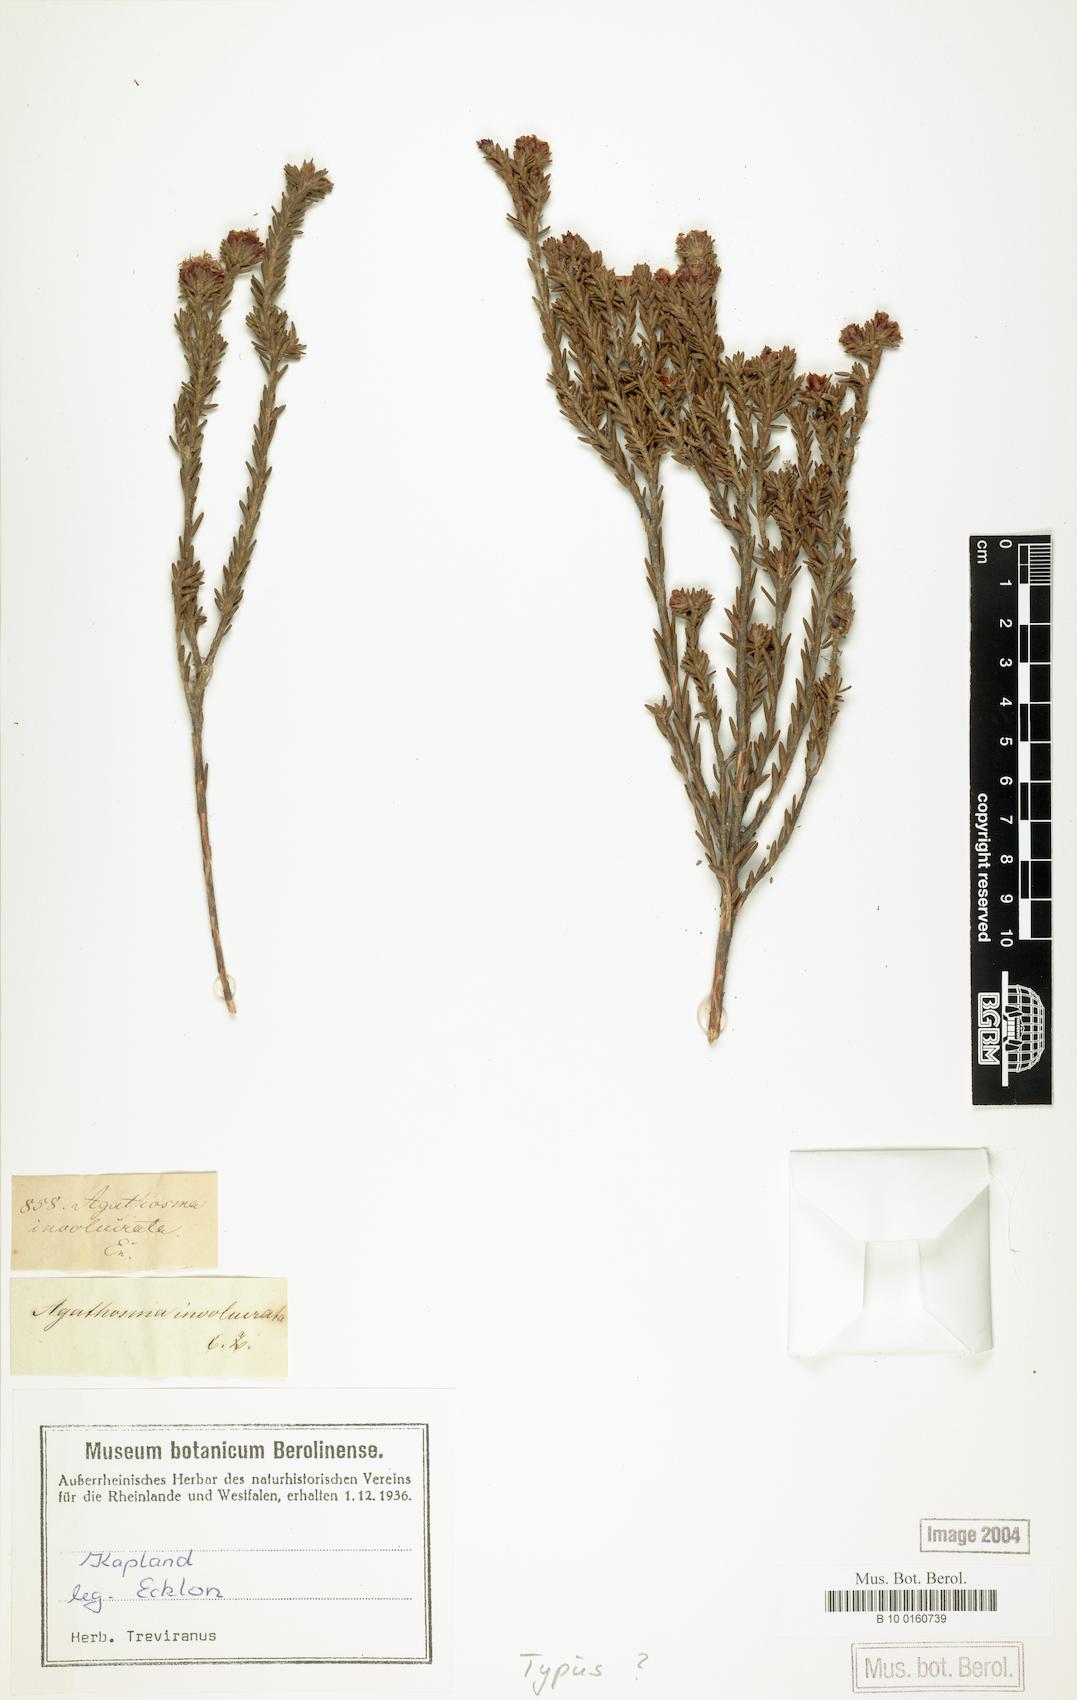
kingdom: Plantae
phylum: Tracheophyta
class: Magnoliopsida
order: Sapindales
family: Rutaceae
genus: Agathosma
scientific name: Agathosma involucrata
